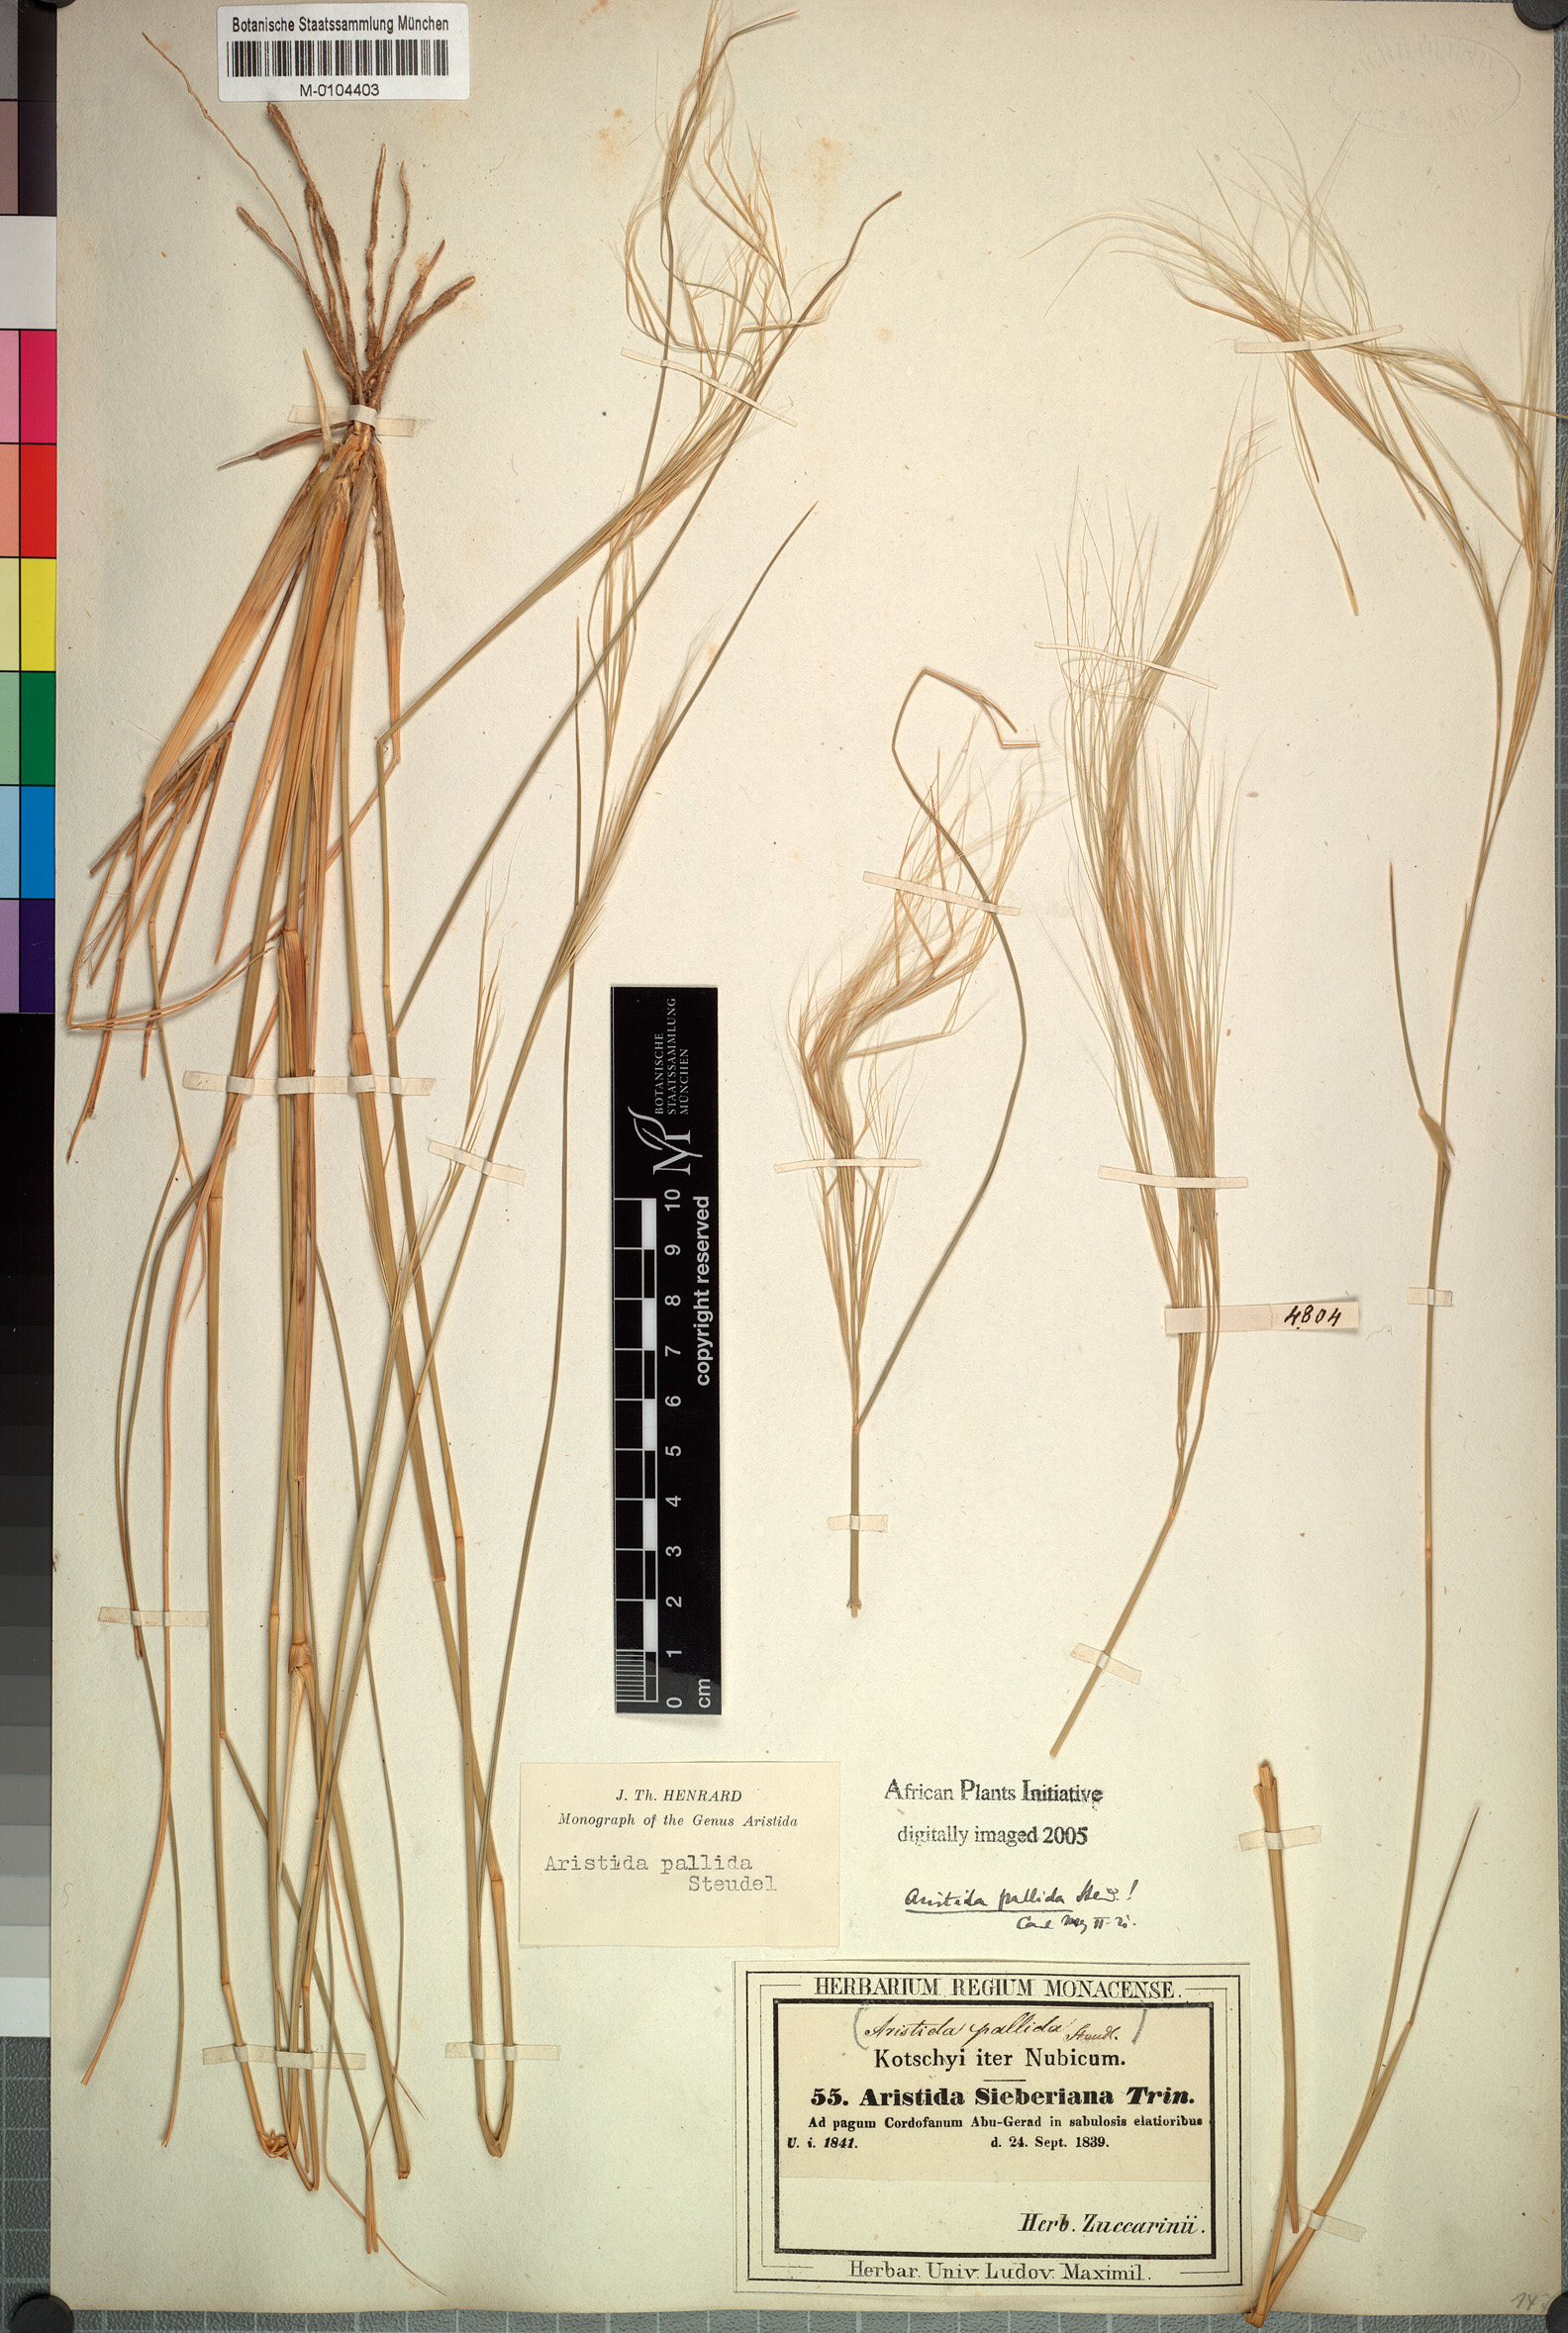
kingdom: Plantae
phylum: Tracheophyta
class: Liliopsida
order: Poales
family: Poaceae
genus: Aristida
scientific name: Aristida sieberiana
